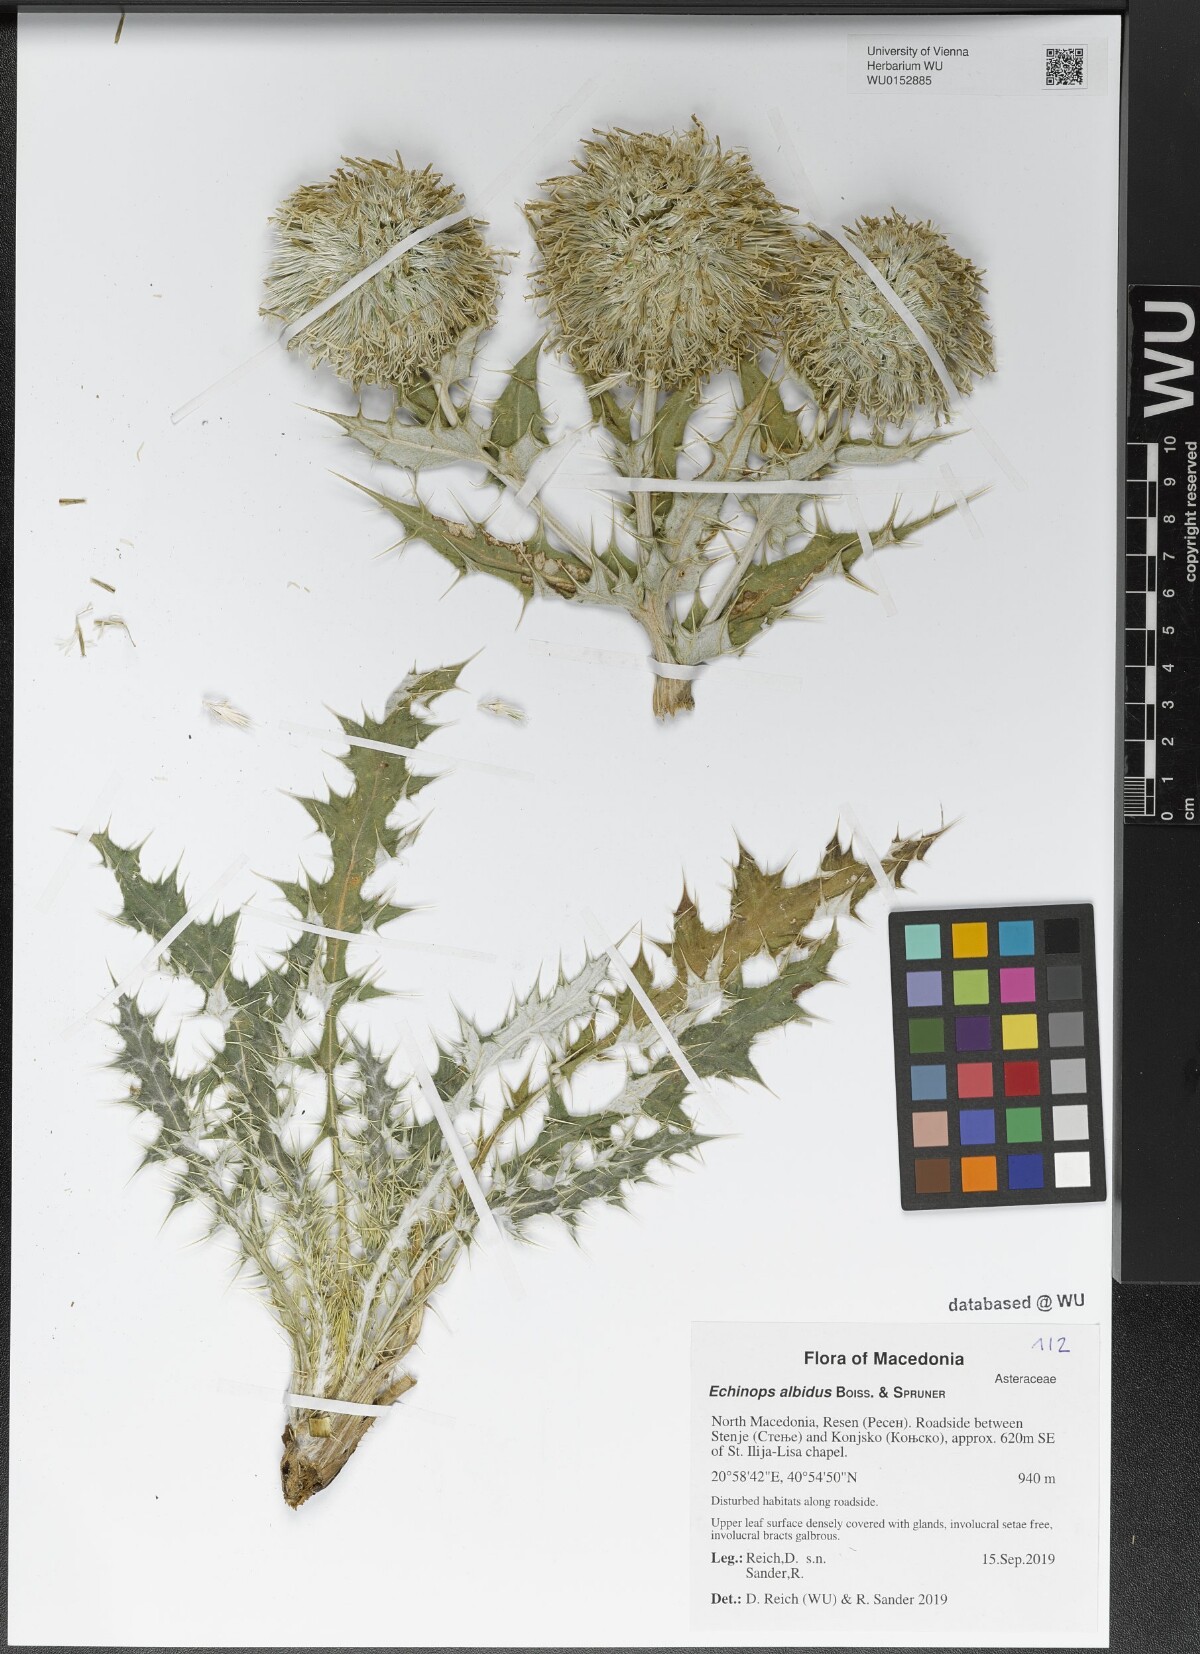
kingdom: Plantae
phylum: Tracheophyta
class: Magnoliopsida
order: Asterales
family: Asteraceae
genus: Echinops
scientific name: Echinops sphaerocephalus
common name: Glandular globe-thistle
